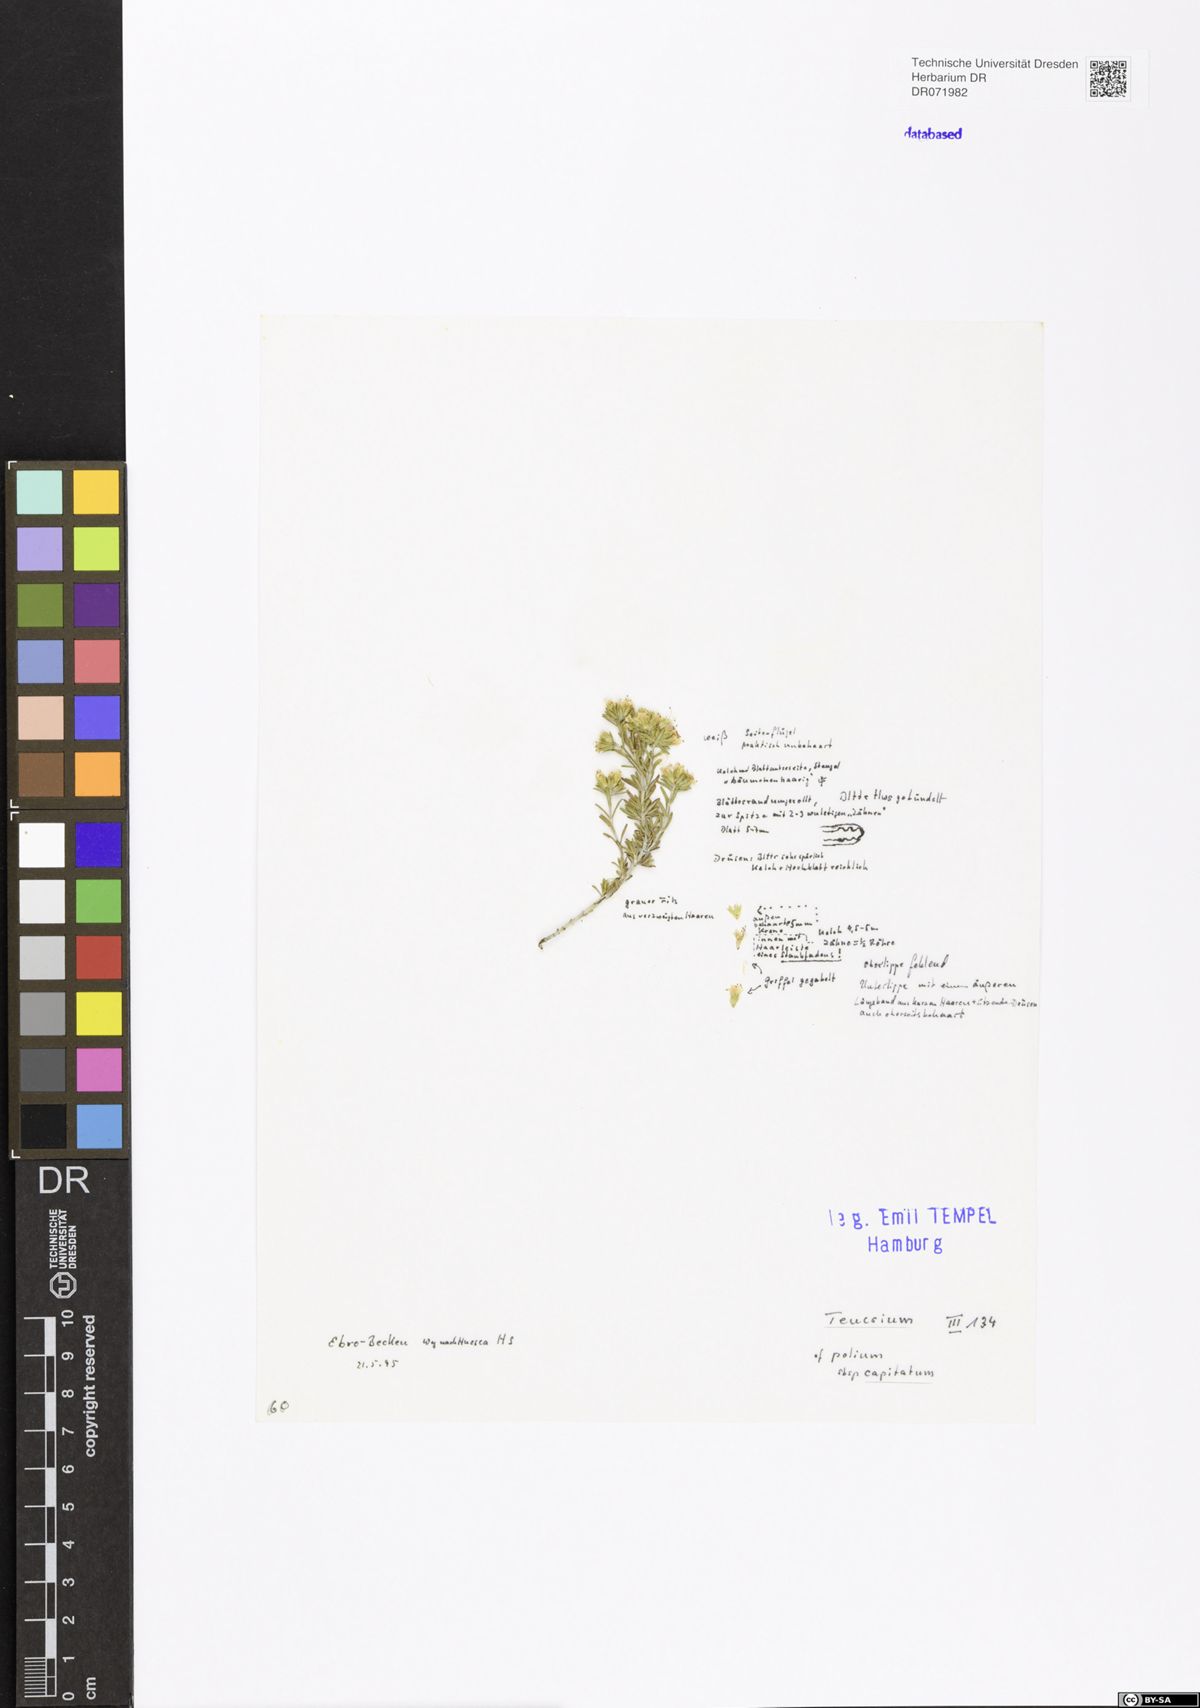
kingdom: Plantae
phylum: Tracheophyta
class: Magnoliopsida
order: Lamiales
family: Lamiaceae
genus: Teucrium
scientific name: Teucrium capitatum
